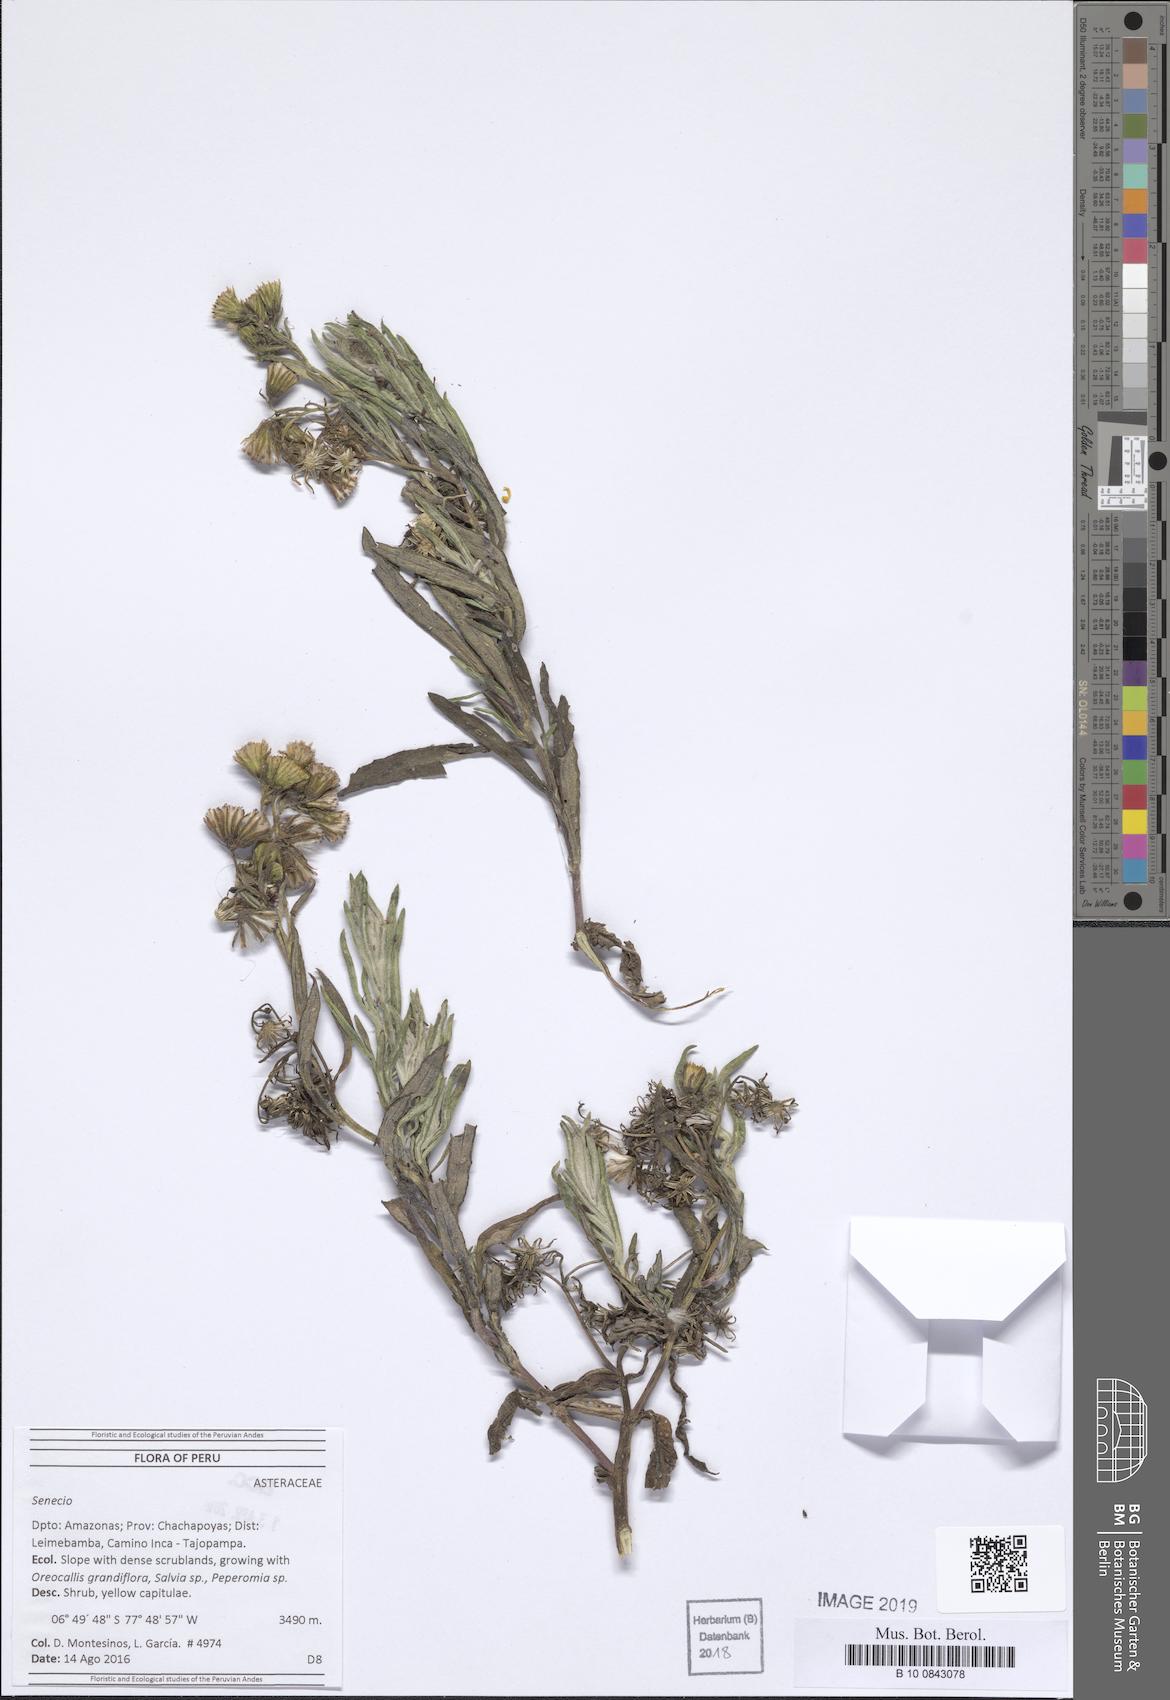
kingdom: Plantae
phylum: Tracheophyta
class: Magnoliopsida
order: Asterales
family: Asteraceae
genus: Senecio
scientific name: Senecio kingbishopii
